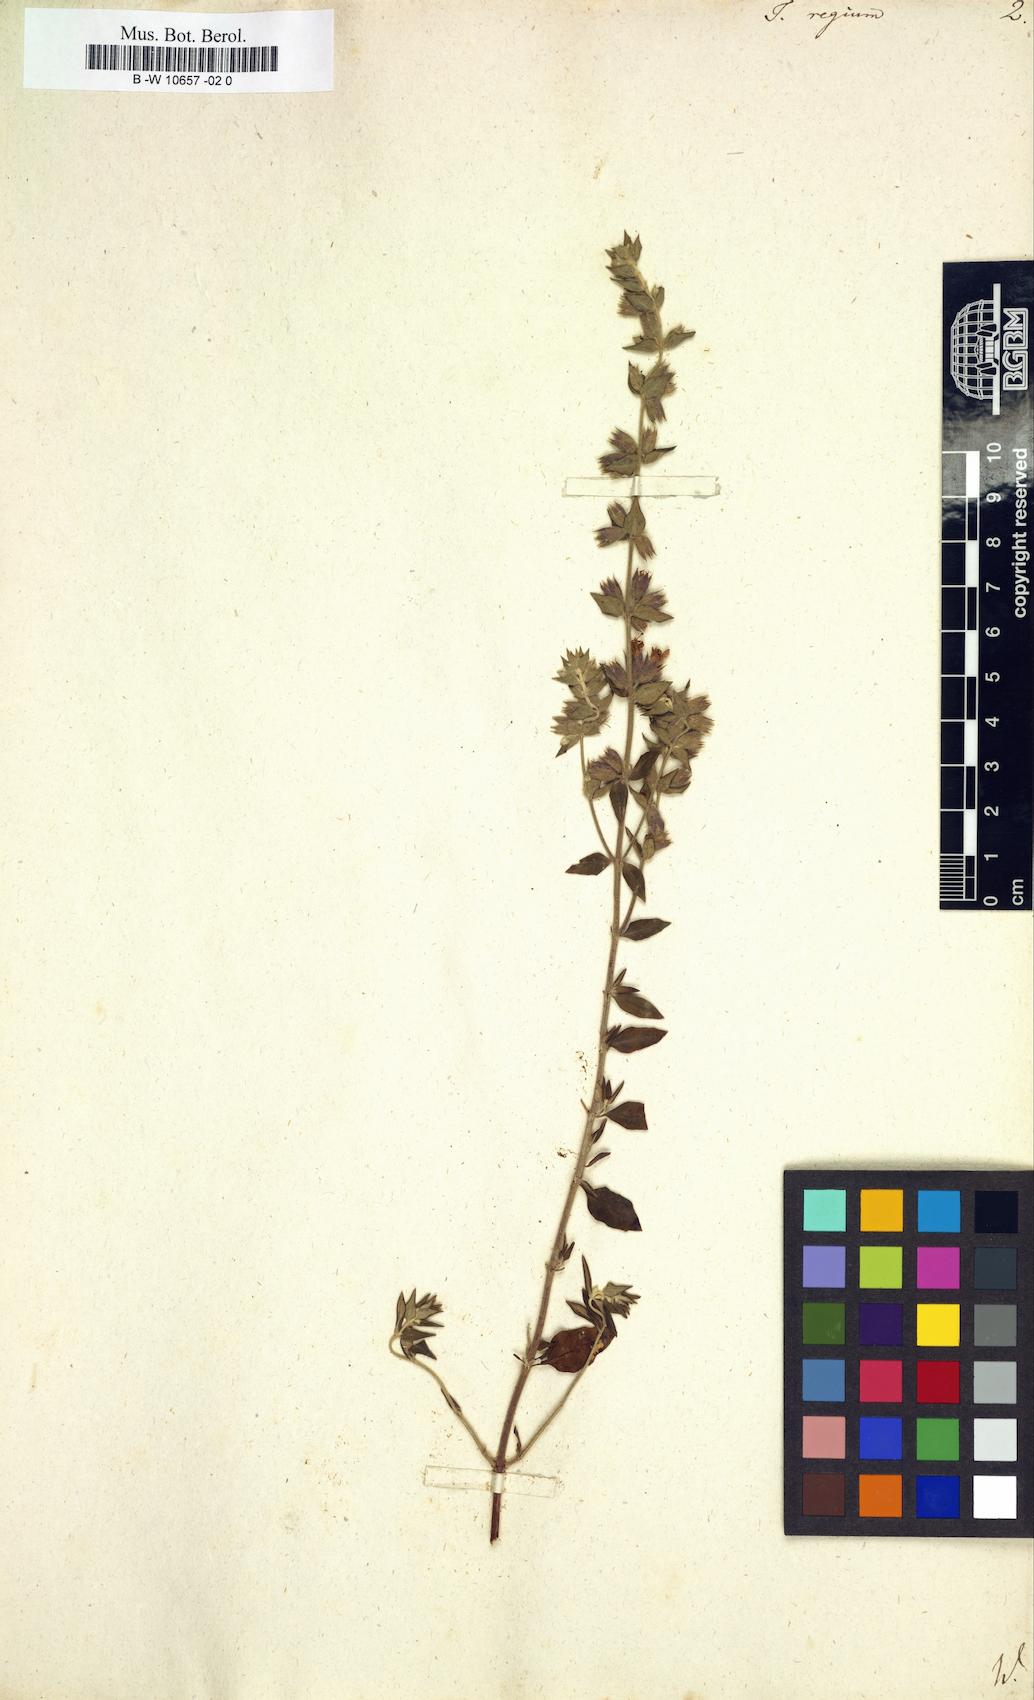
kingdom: Plantae
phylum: Tracheophyta
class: Magnoliopsida
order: Lamiales
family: Lamiaceae
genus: Teucrium
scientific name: Teucrium regium
